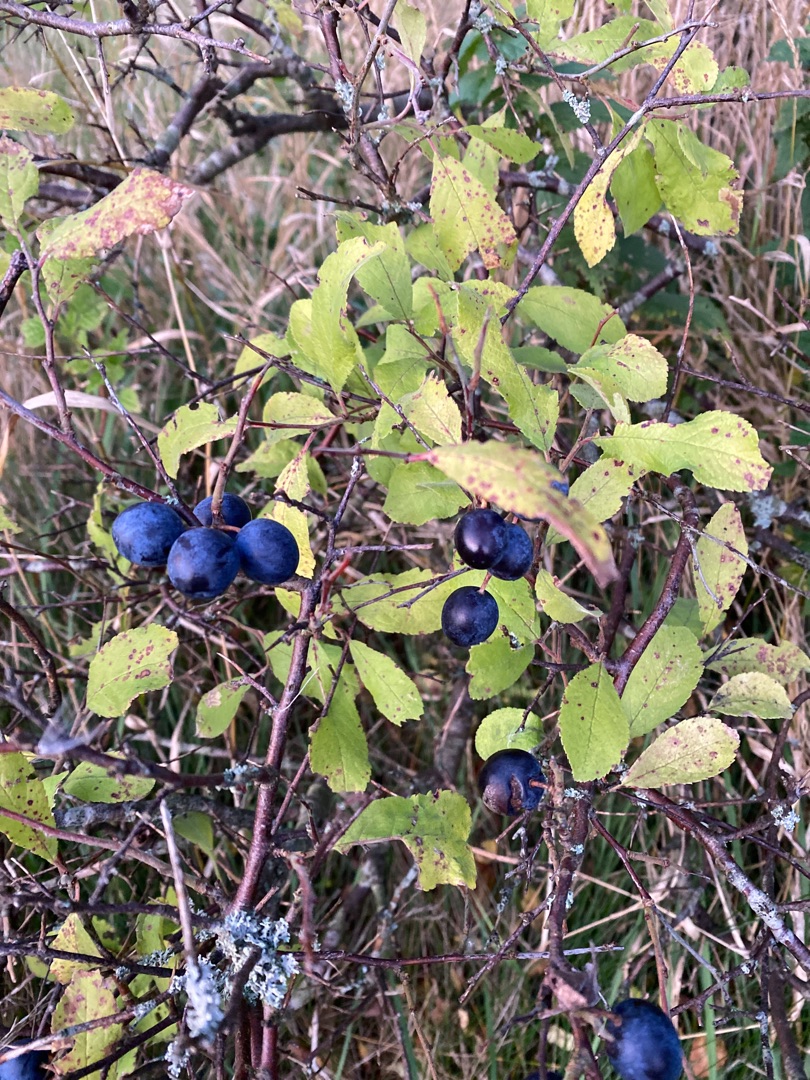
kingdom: Plantae
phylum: Tracheophyta
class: Magnoliopsida
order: Rosales
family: Rosaceae
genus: Prunus
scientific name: Prunus spinosa
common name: Slåen
